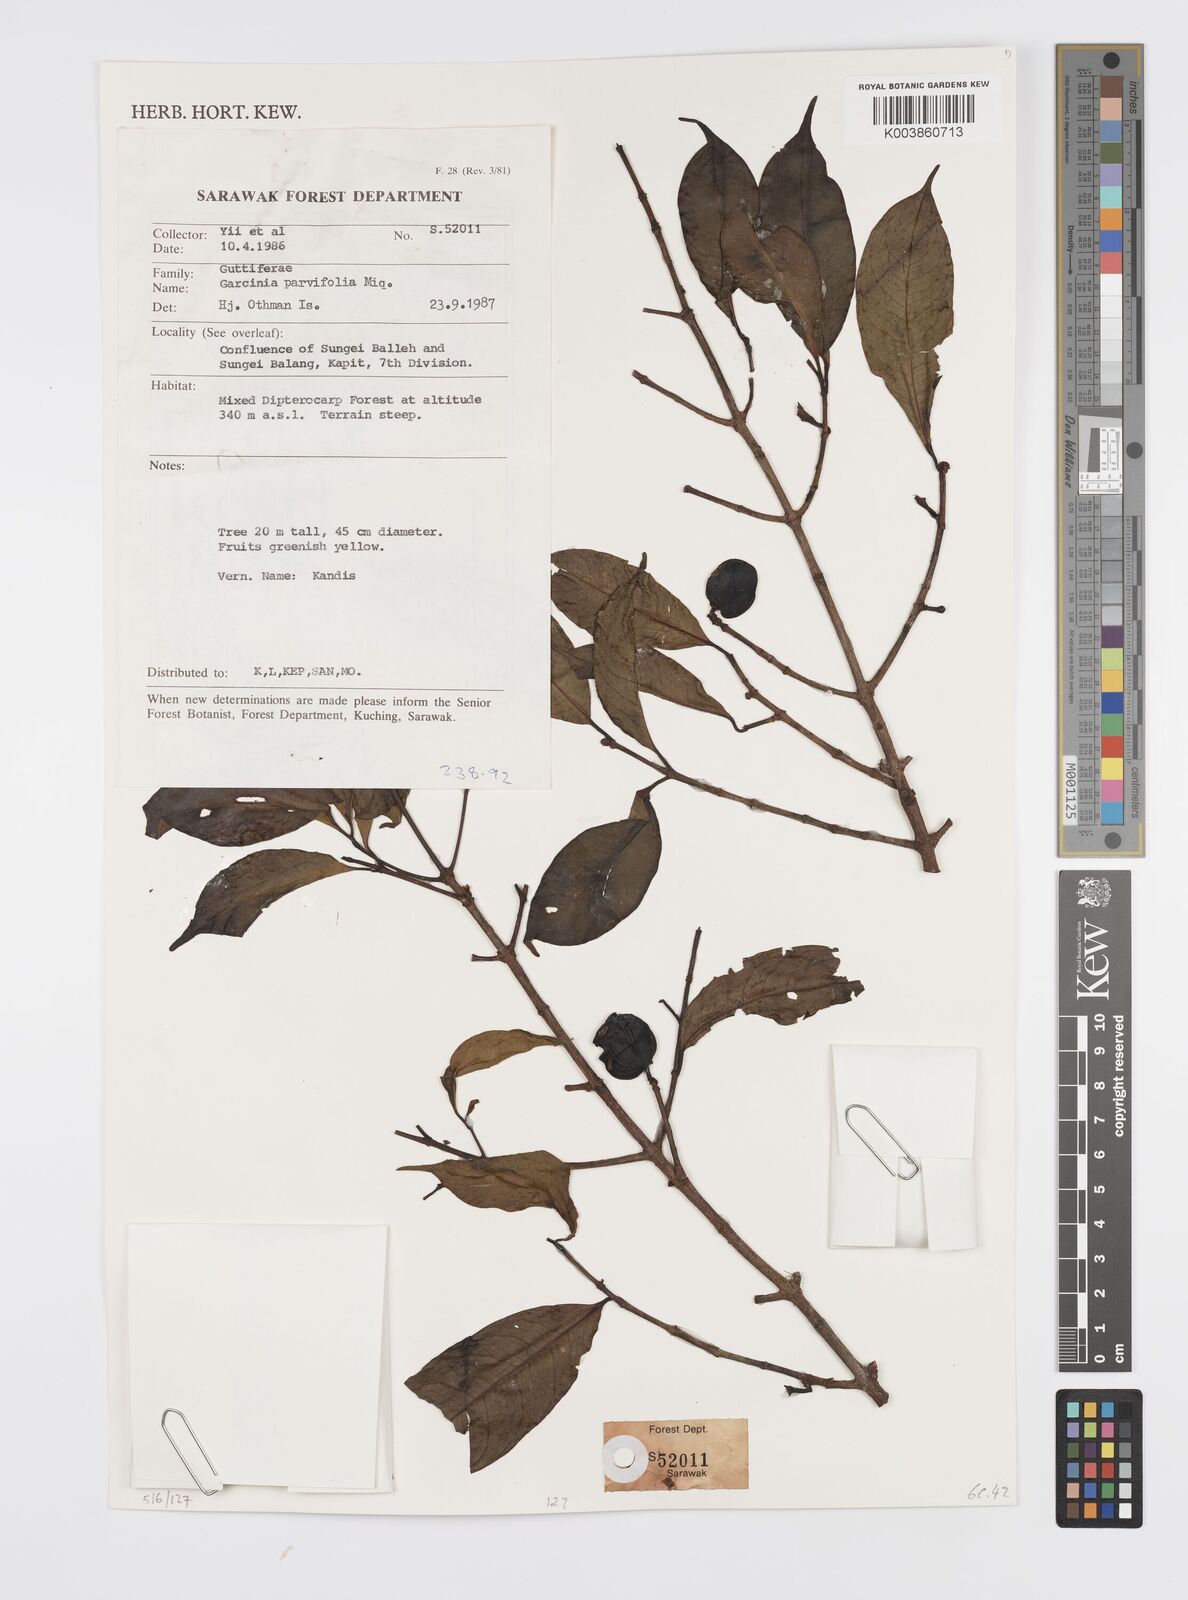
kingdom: Plantae
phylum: Tracheophyta
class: Magnoliopsida
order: Malpighiales
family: Clusiaceae
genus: Garcinia
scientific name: Garcinia parvifolia
